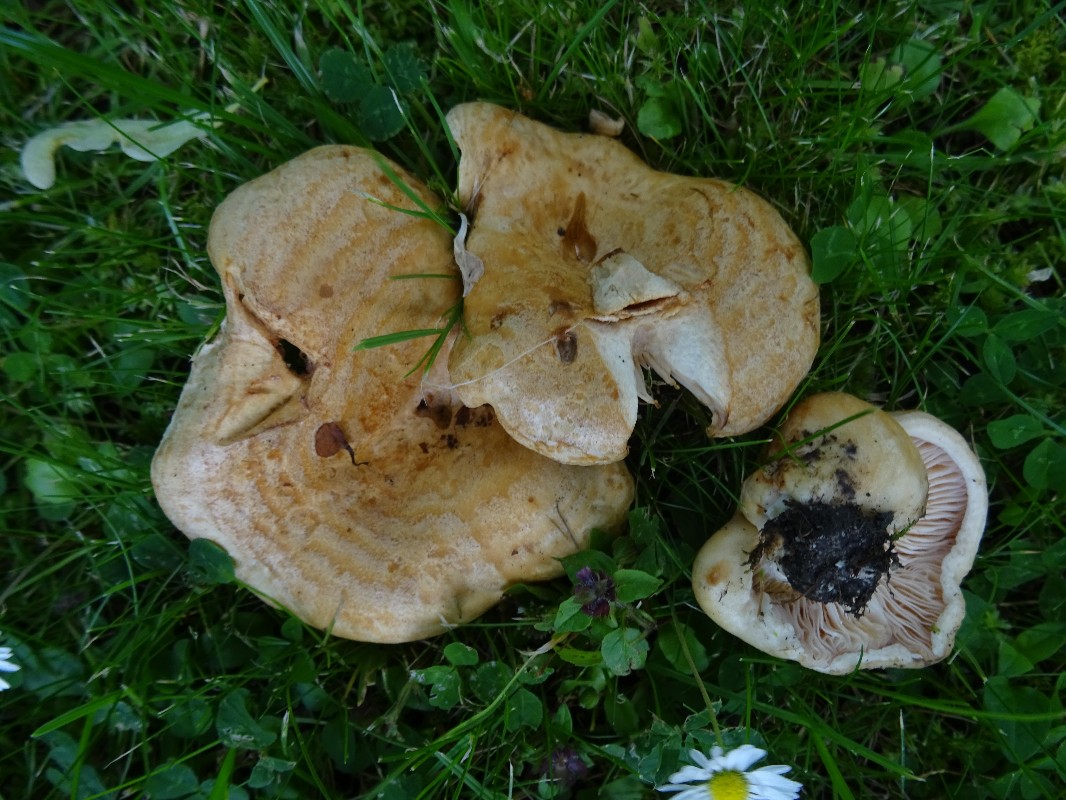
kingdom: Fungi
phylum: Basidiomycota
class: Agaricomycetes
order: Russulales
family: Russulaceae
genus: Lactarius
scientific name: Lactarius acerrimus
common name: brændende mælkehat
